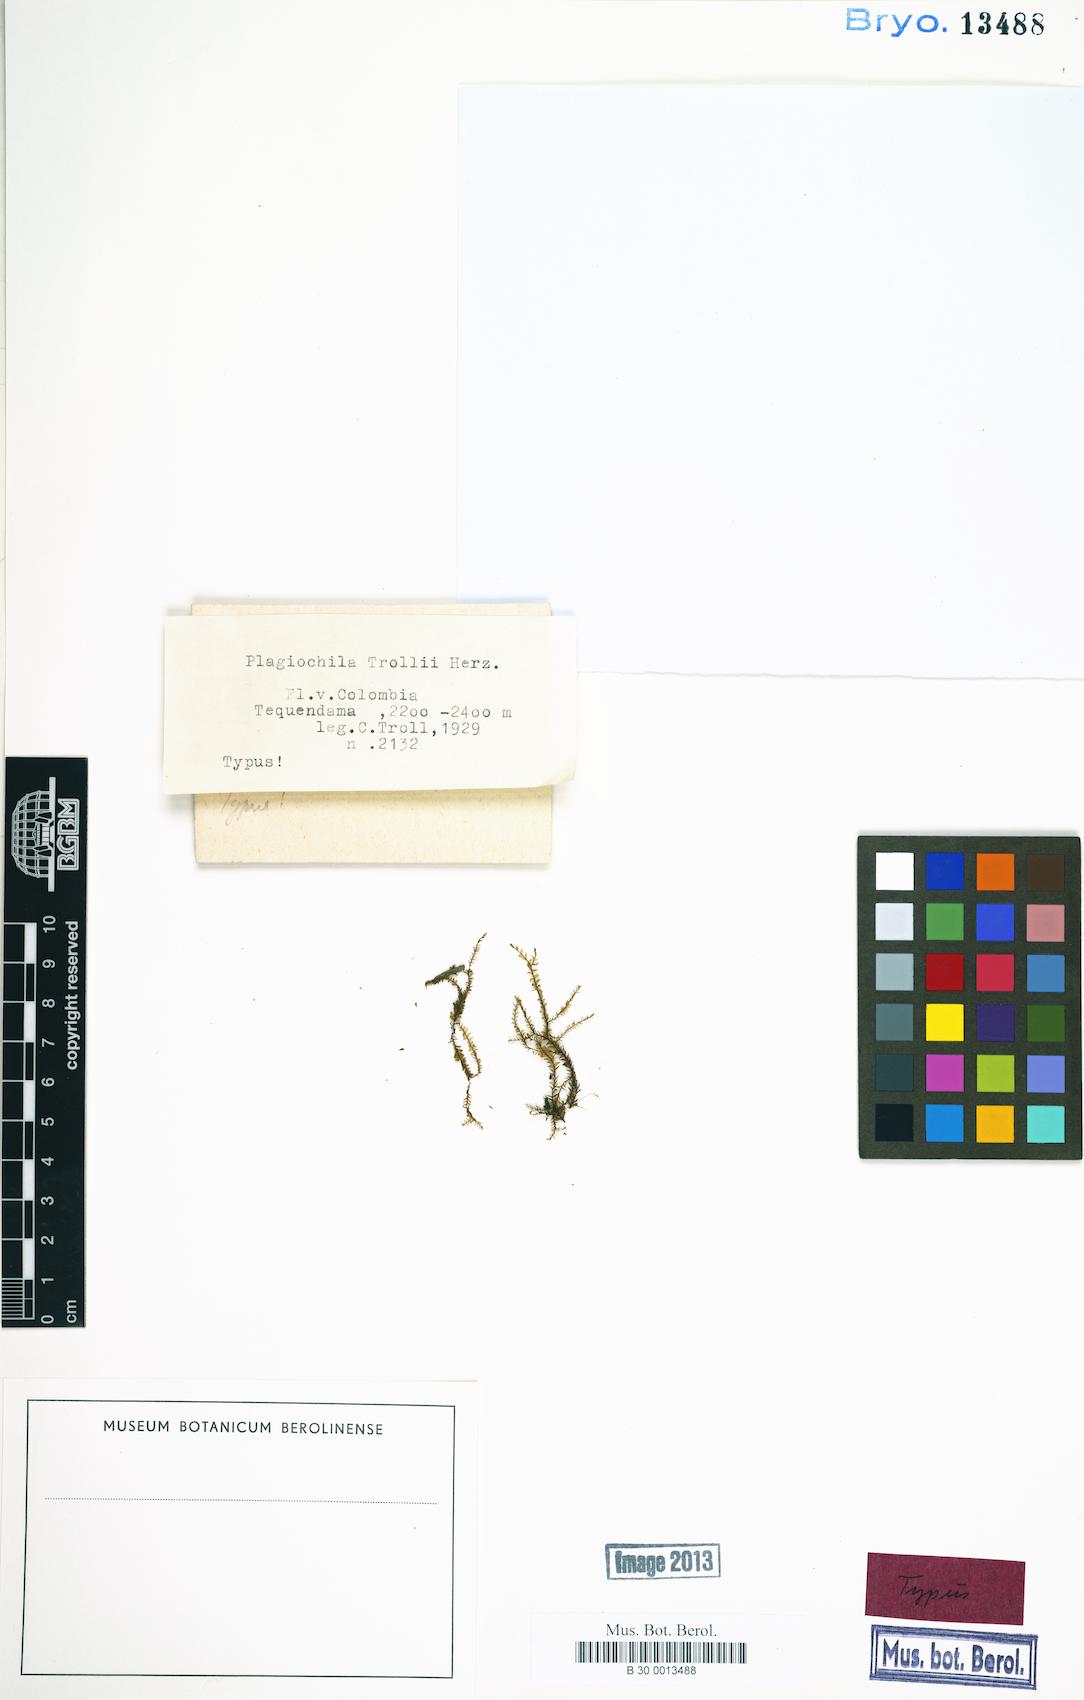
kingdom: Plantae
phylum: Marchantiophyta
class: Jungermanniopsida
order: Jungermanniales
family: Plagiochilaceae
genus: Plagiochila
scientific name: Plagiochila deflexirama
